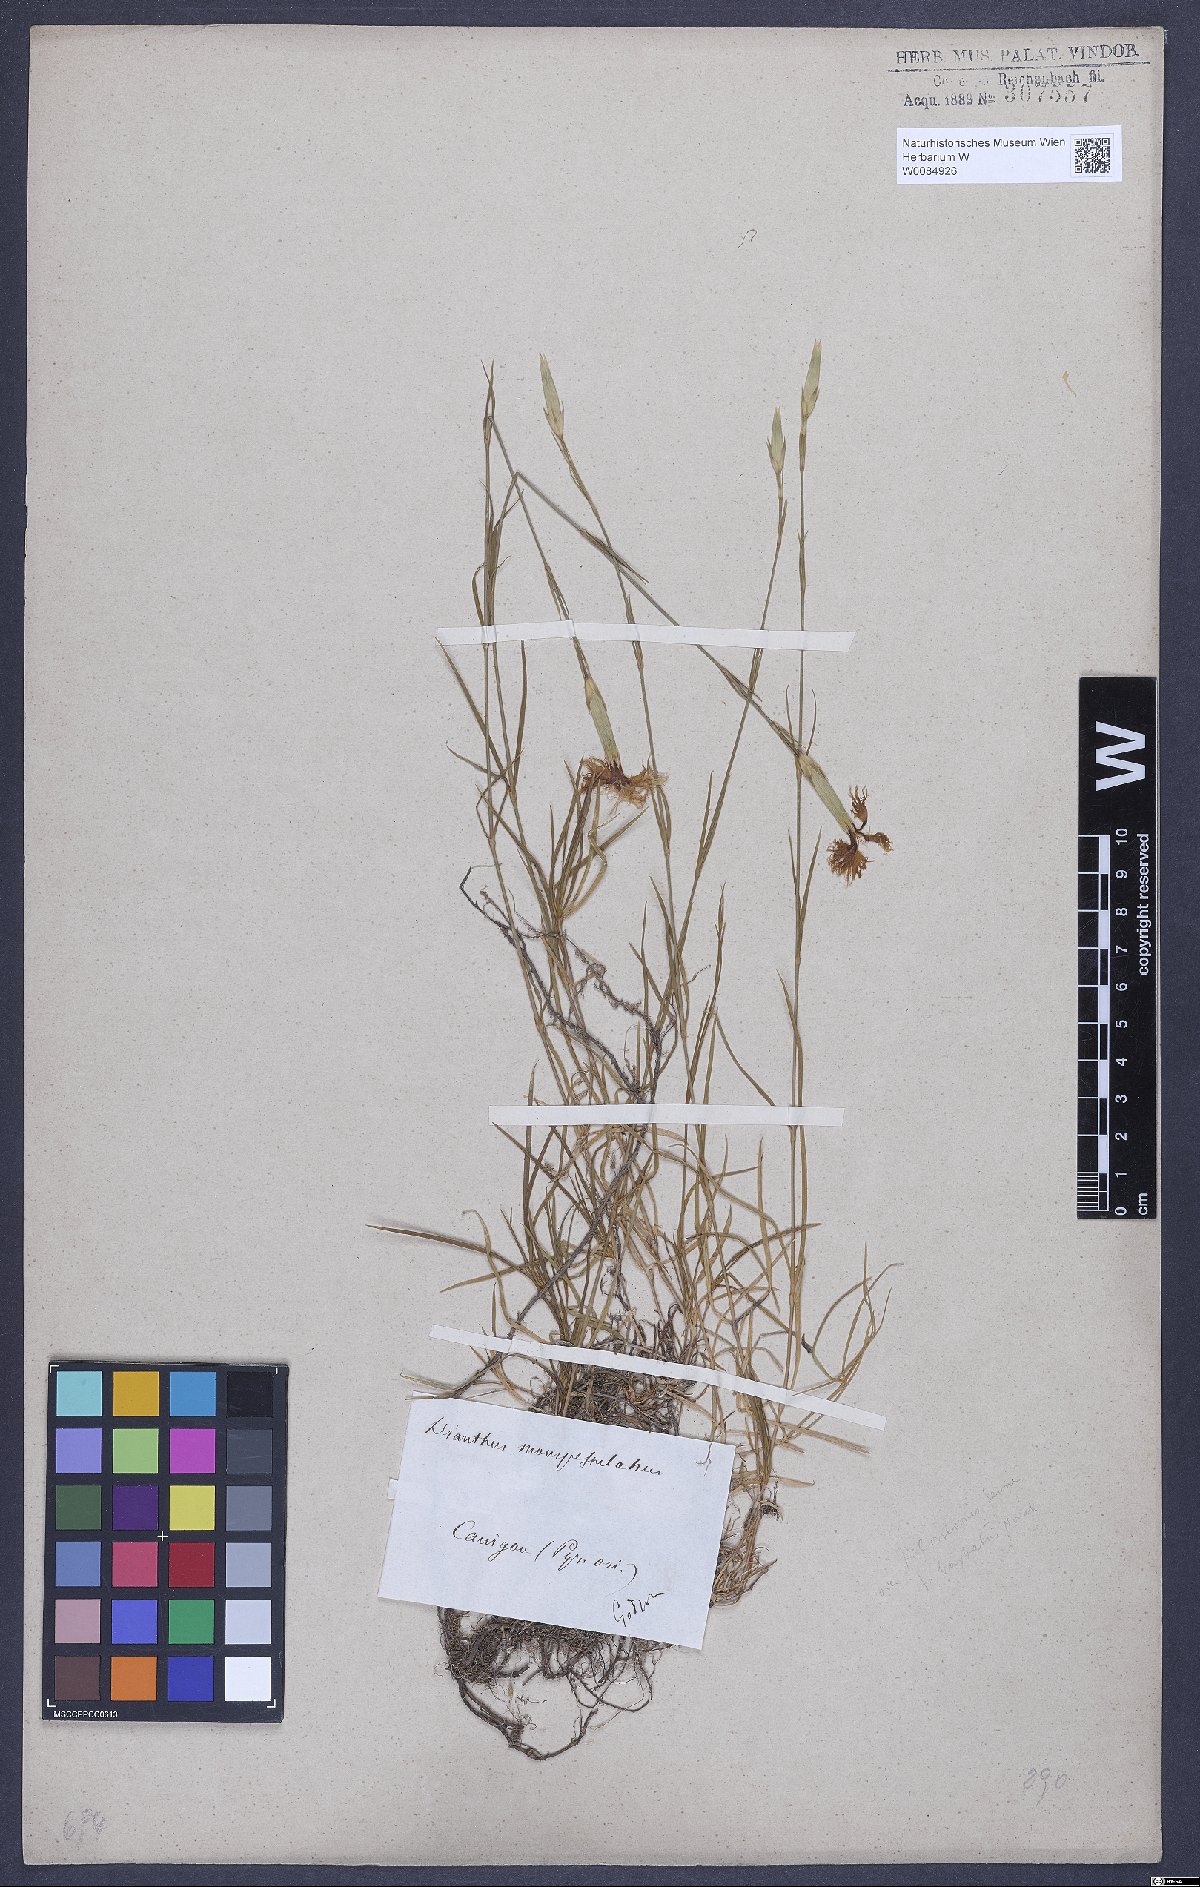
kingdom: Plantae
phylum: Tracheophyta
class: Magnoliopsida
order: Caryophyllales
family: Caryophyllaceae
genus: Dianthus
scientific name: Dianthus hyssopifolius
